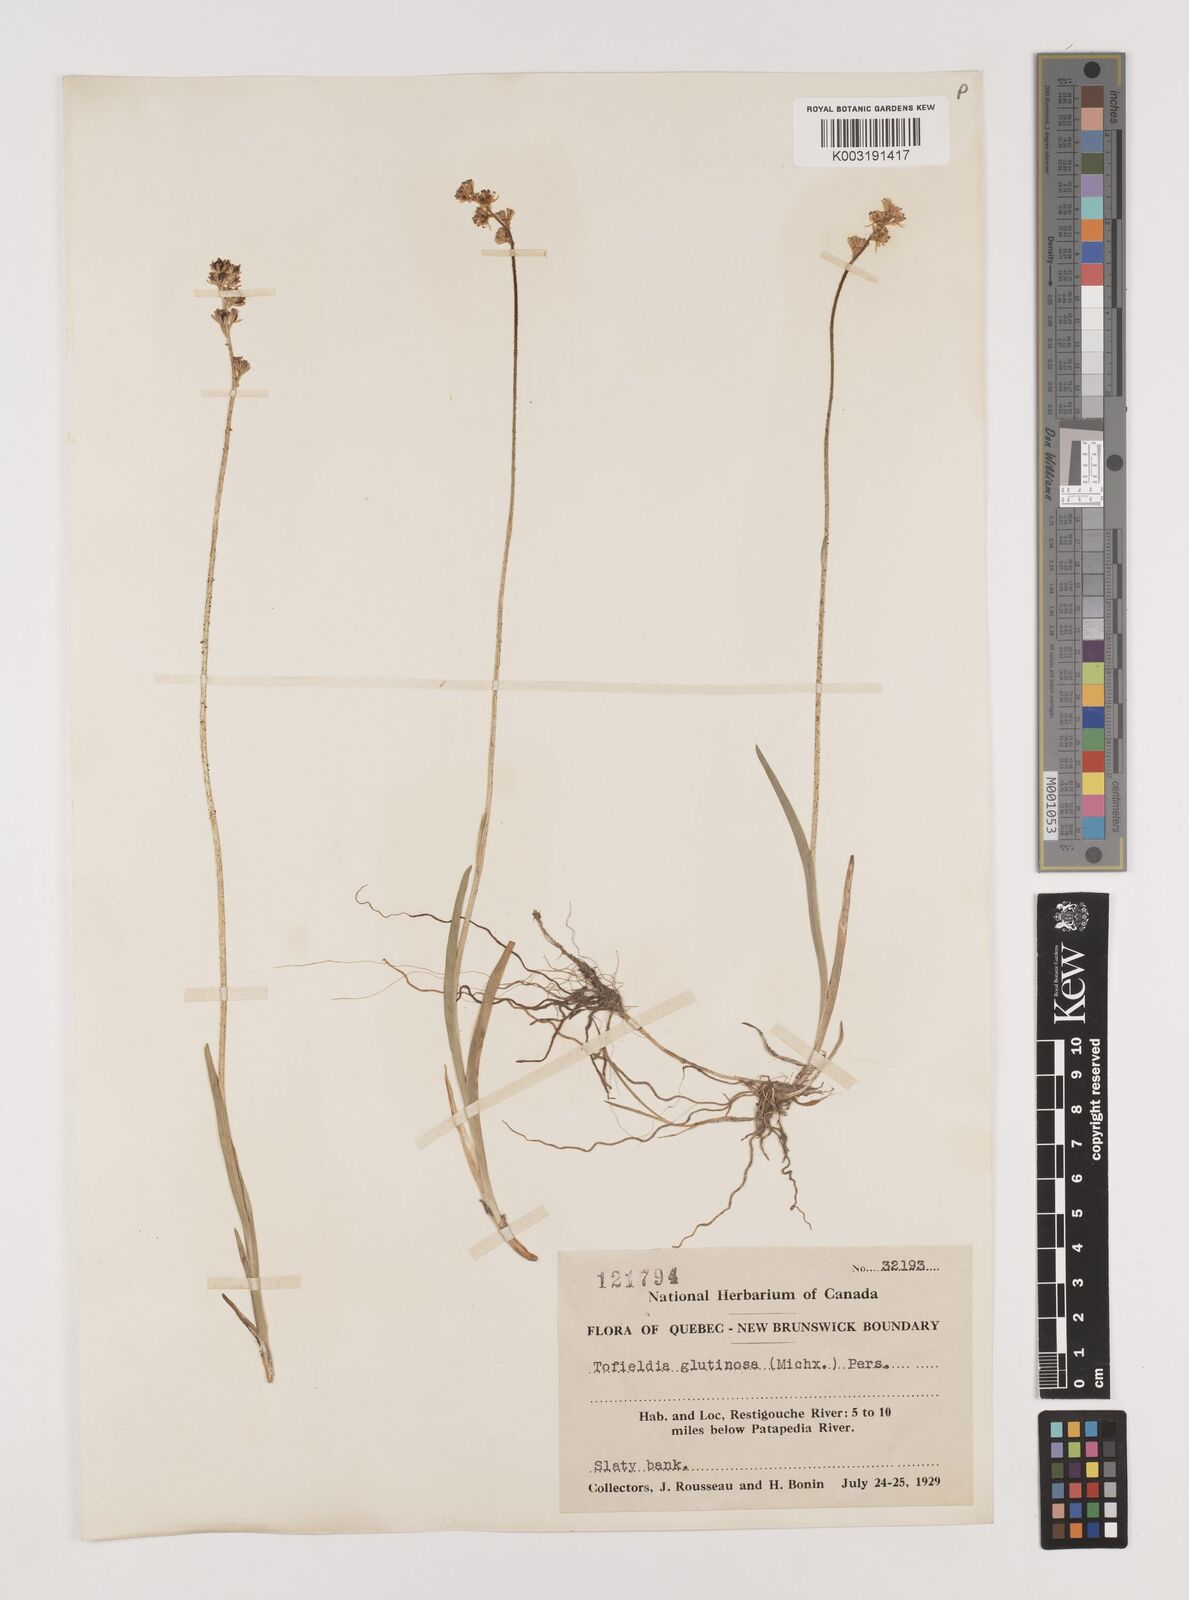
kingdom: Plantae
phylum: Tracheophyta
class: Liliopsida
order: Alismatales
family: Tofieldiaceae
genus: Triantha
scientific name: Triantha glutinosa
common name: Glutinous tofieldia
